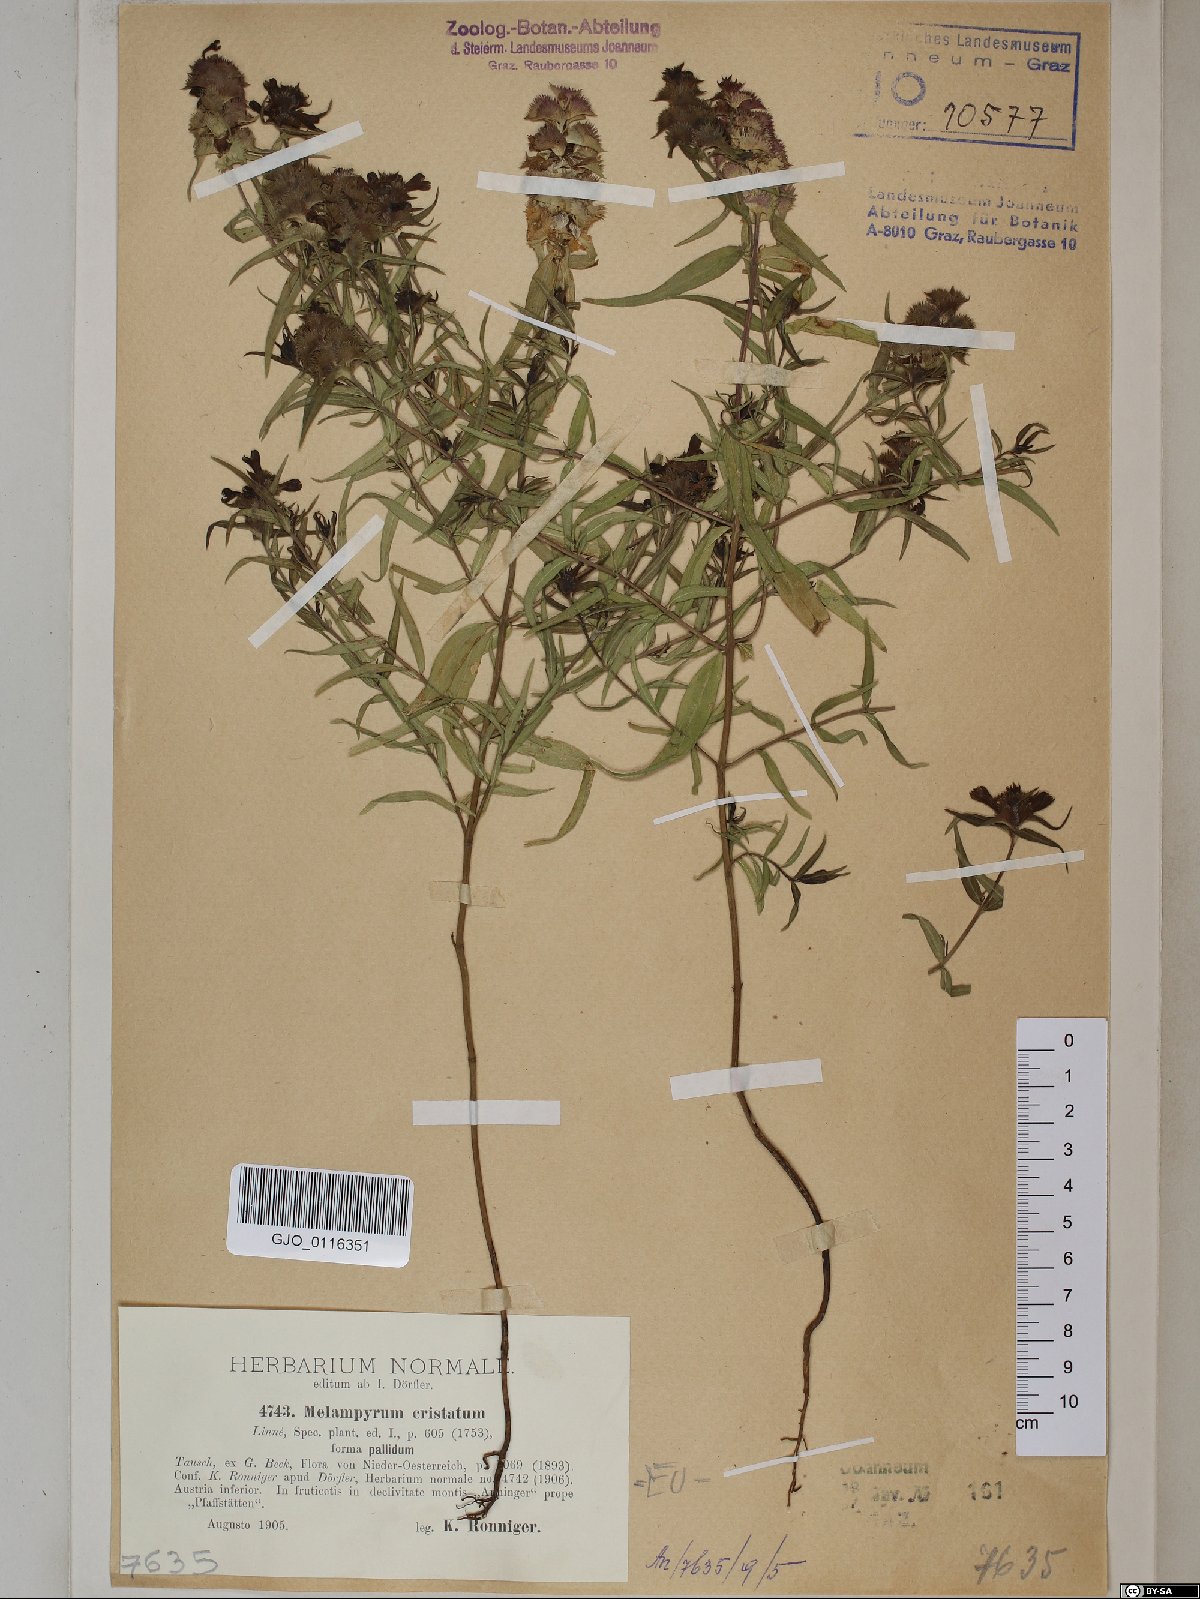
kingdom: Plantae
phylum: Tracheophyta
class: Magnoliopsida
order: Lamiales
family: Orobanchaceae
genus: Melampyrum
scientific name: Melampyrum cristatum
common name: Crested cow-wheat
